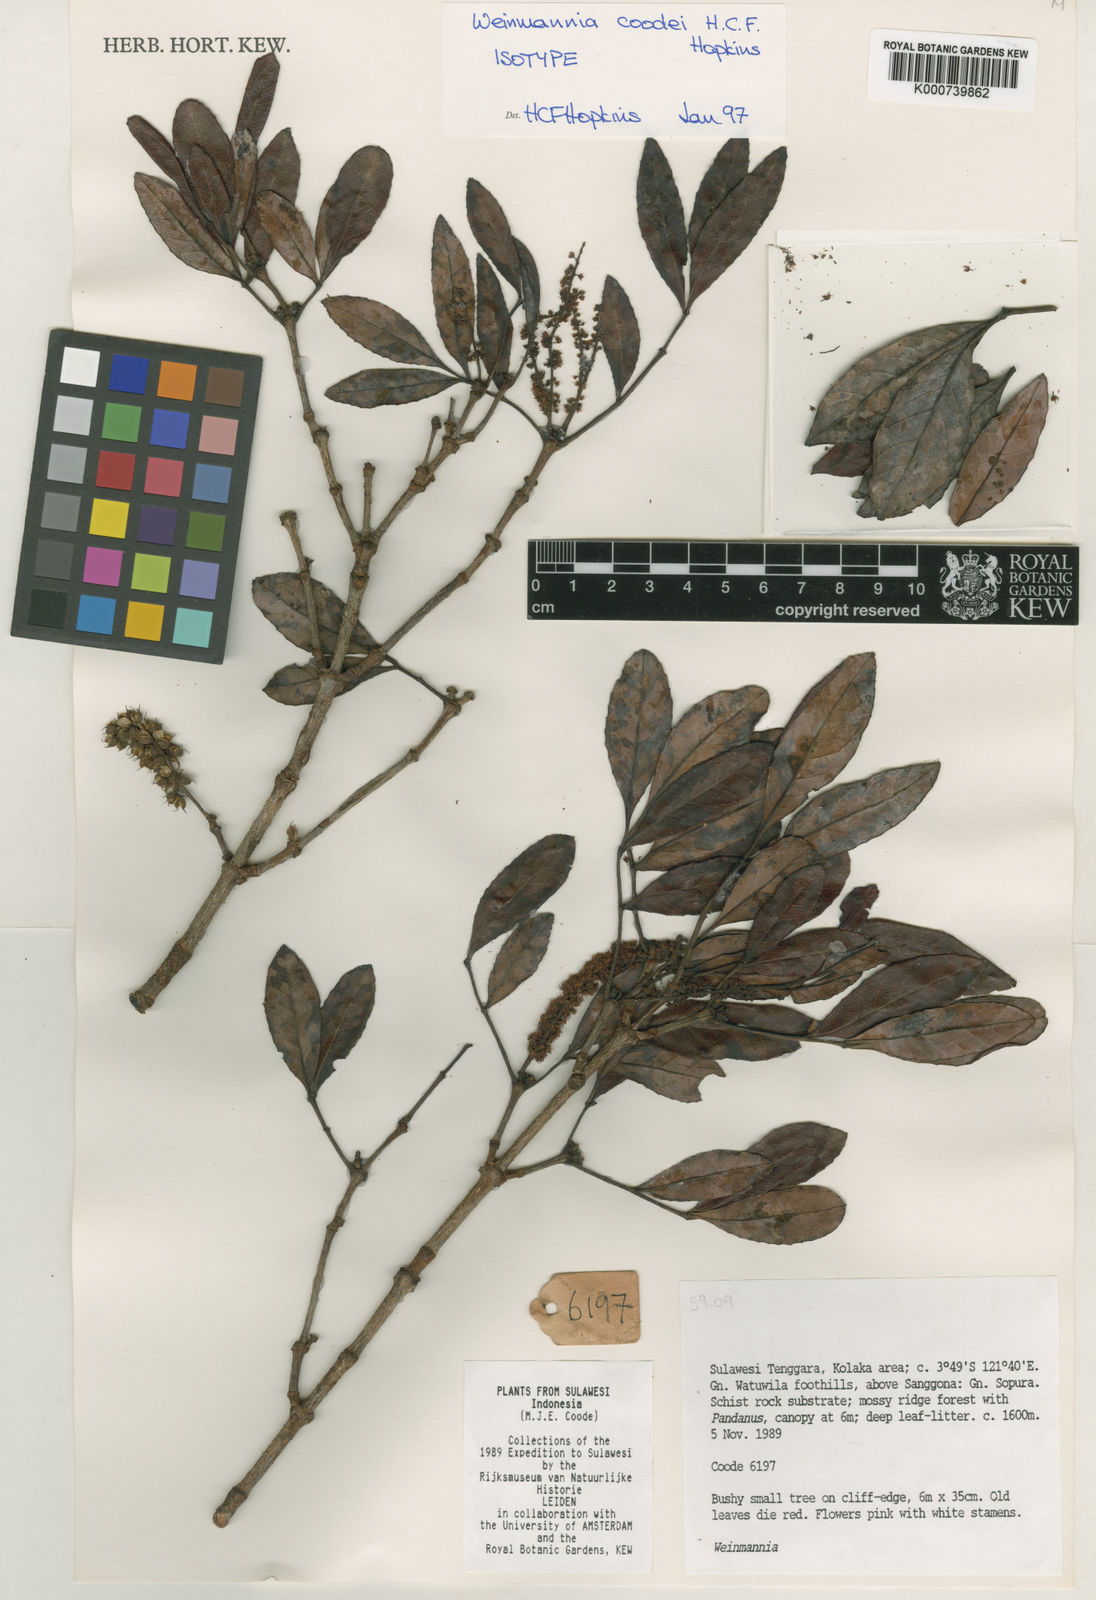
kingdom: Plantae
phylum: Tracheophyta
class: Magnoliopsida
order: Oxalidales
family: Cunoniaceae
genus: Pterophylla
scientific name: Pterophylla coodei
